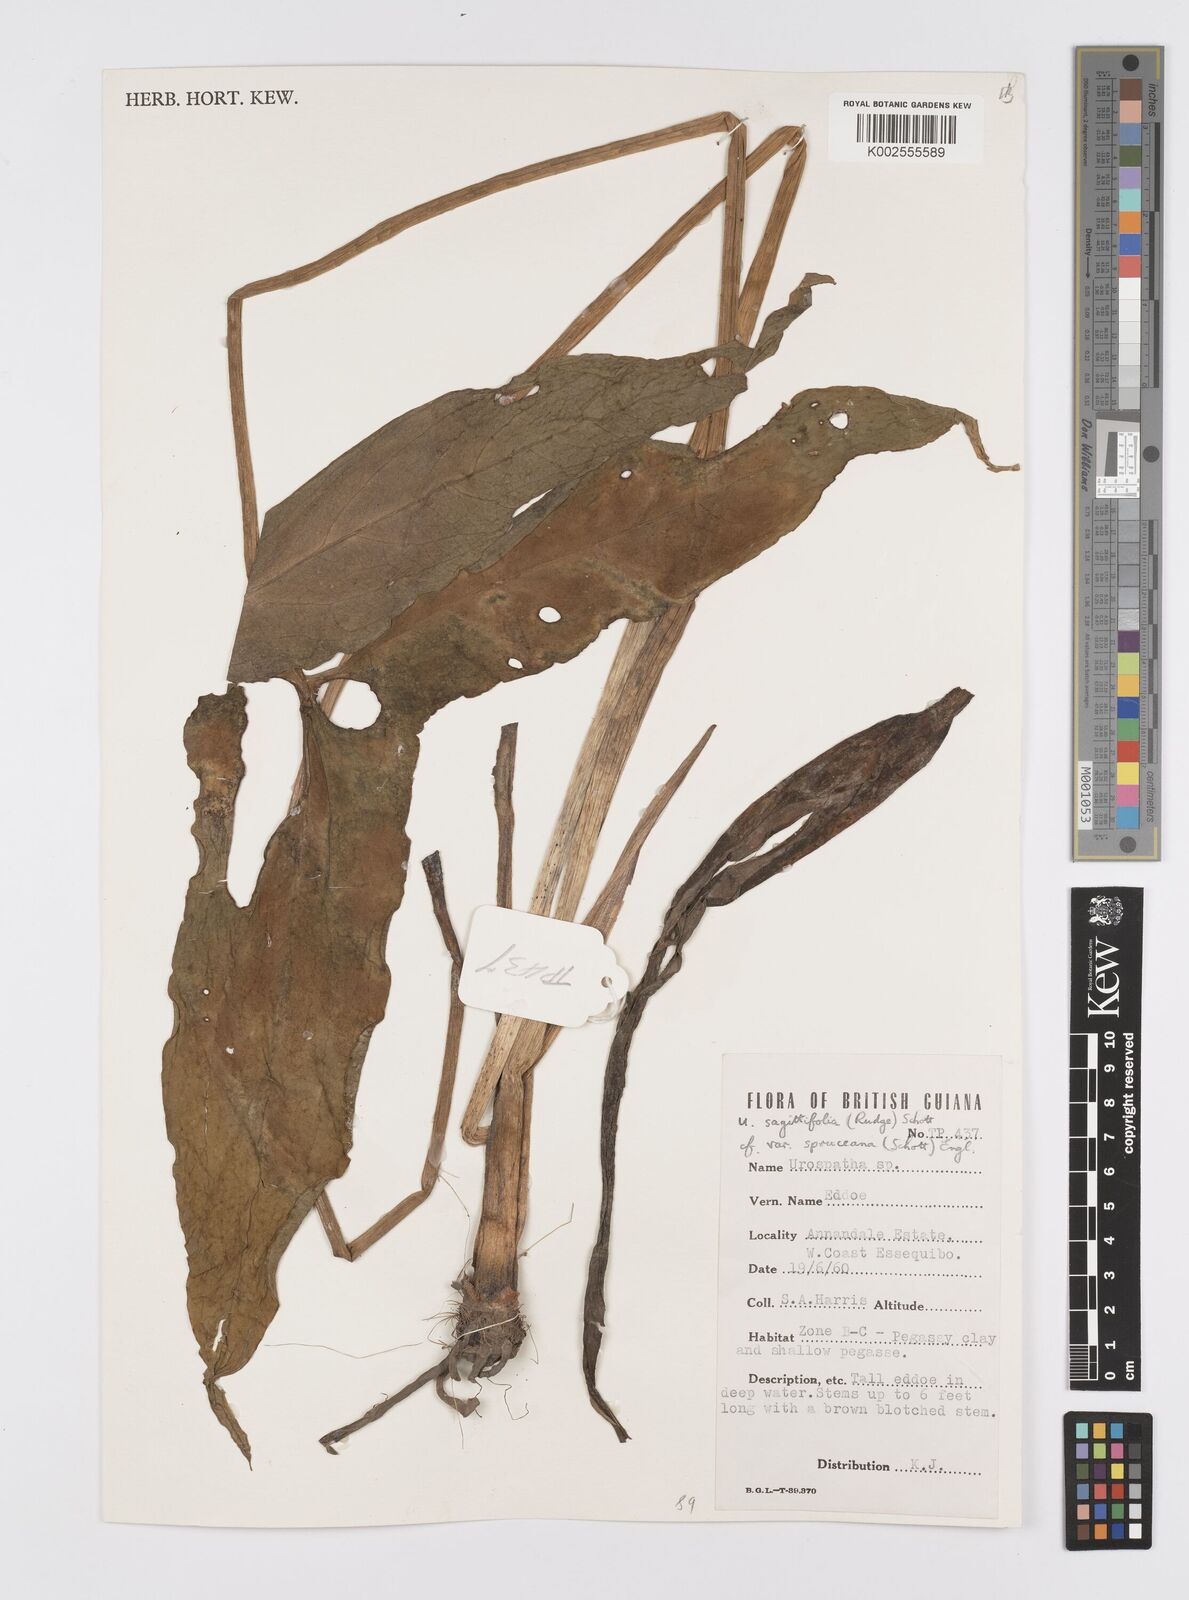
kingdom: Plantae
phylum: Tracheophyta
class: Liliopsida
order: Alismatales
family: Araceae
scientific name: Araceae
